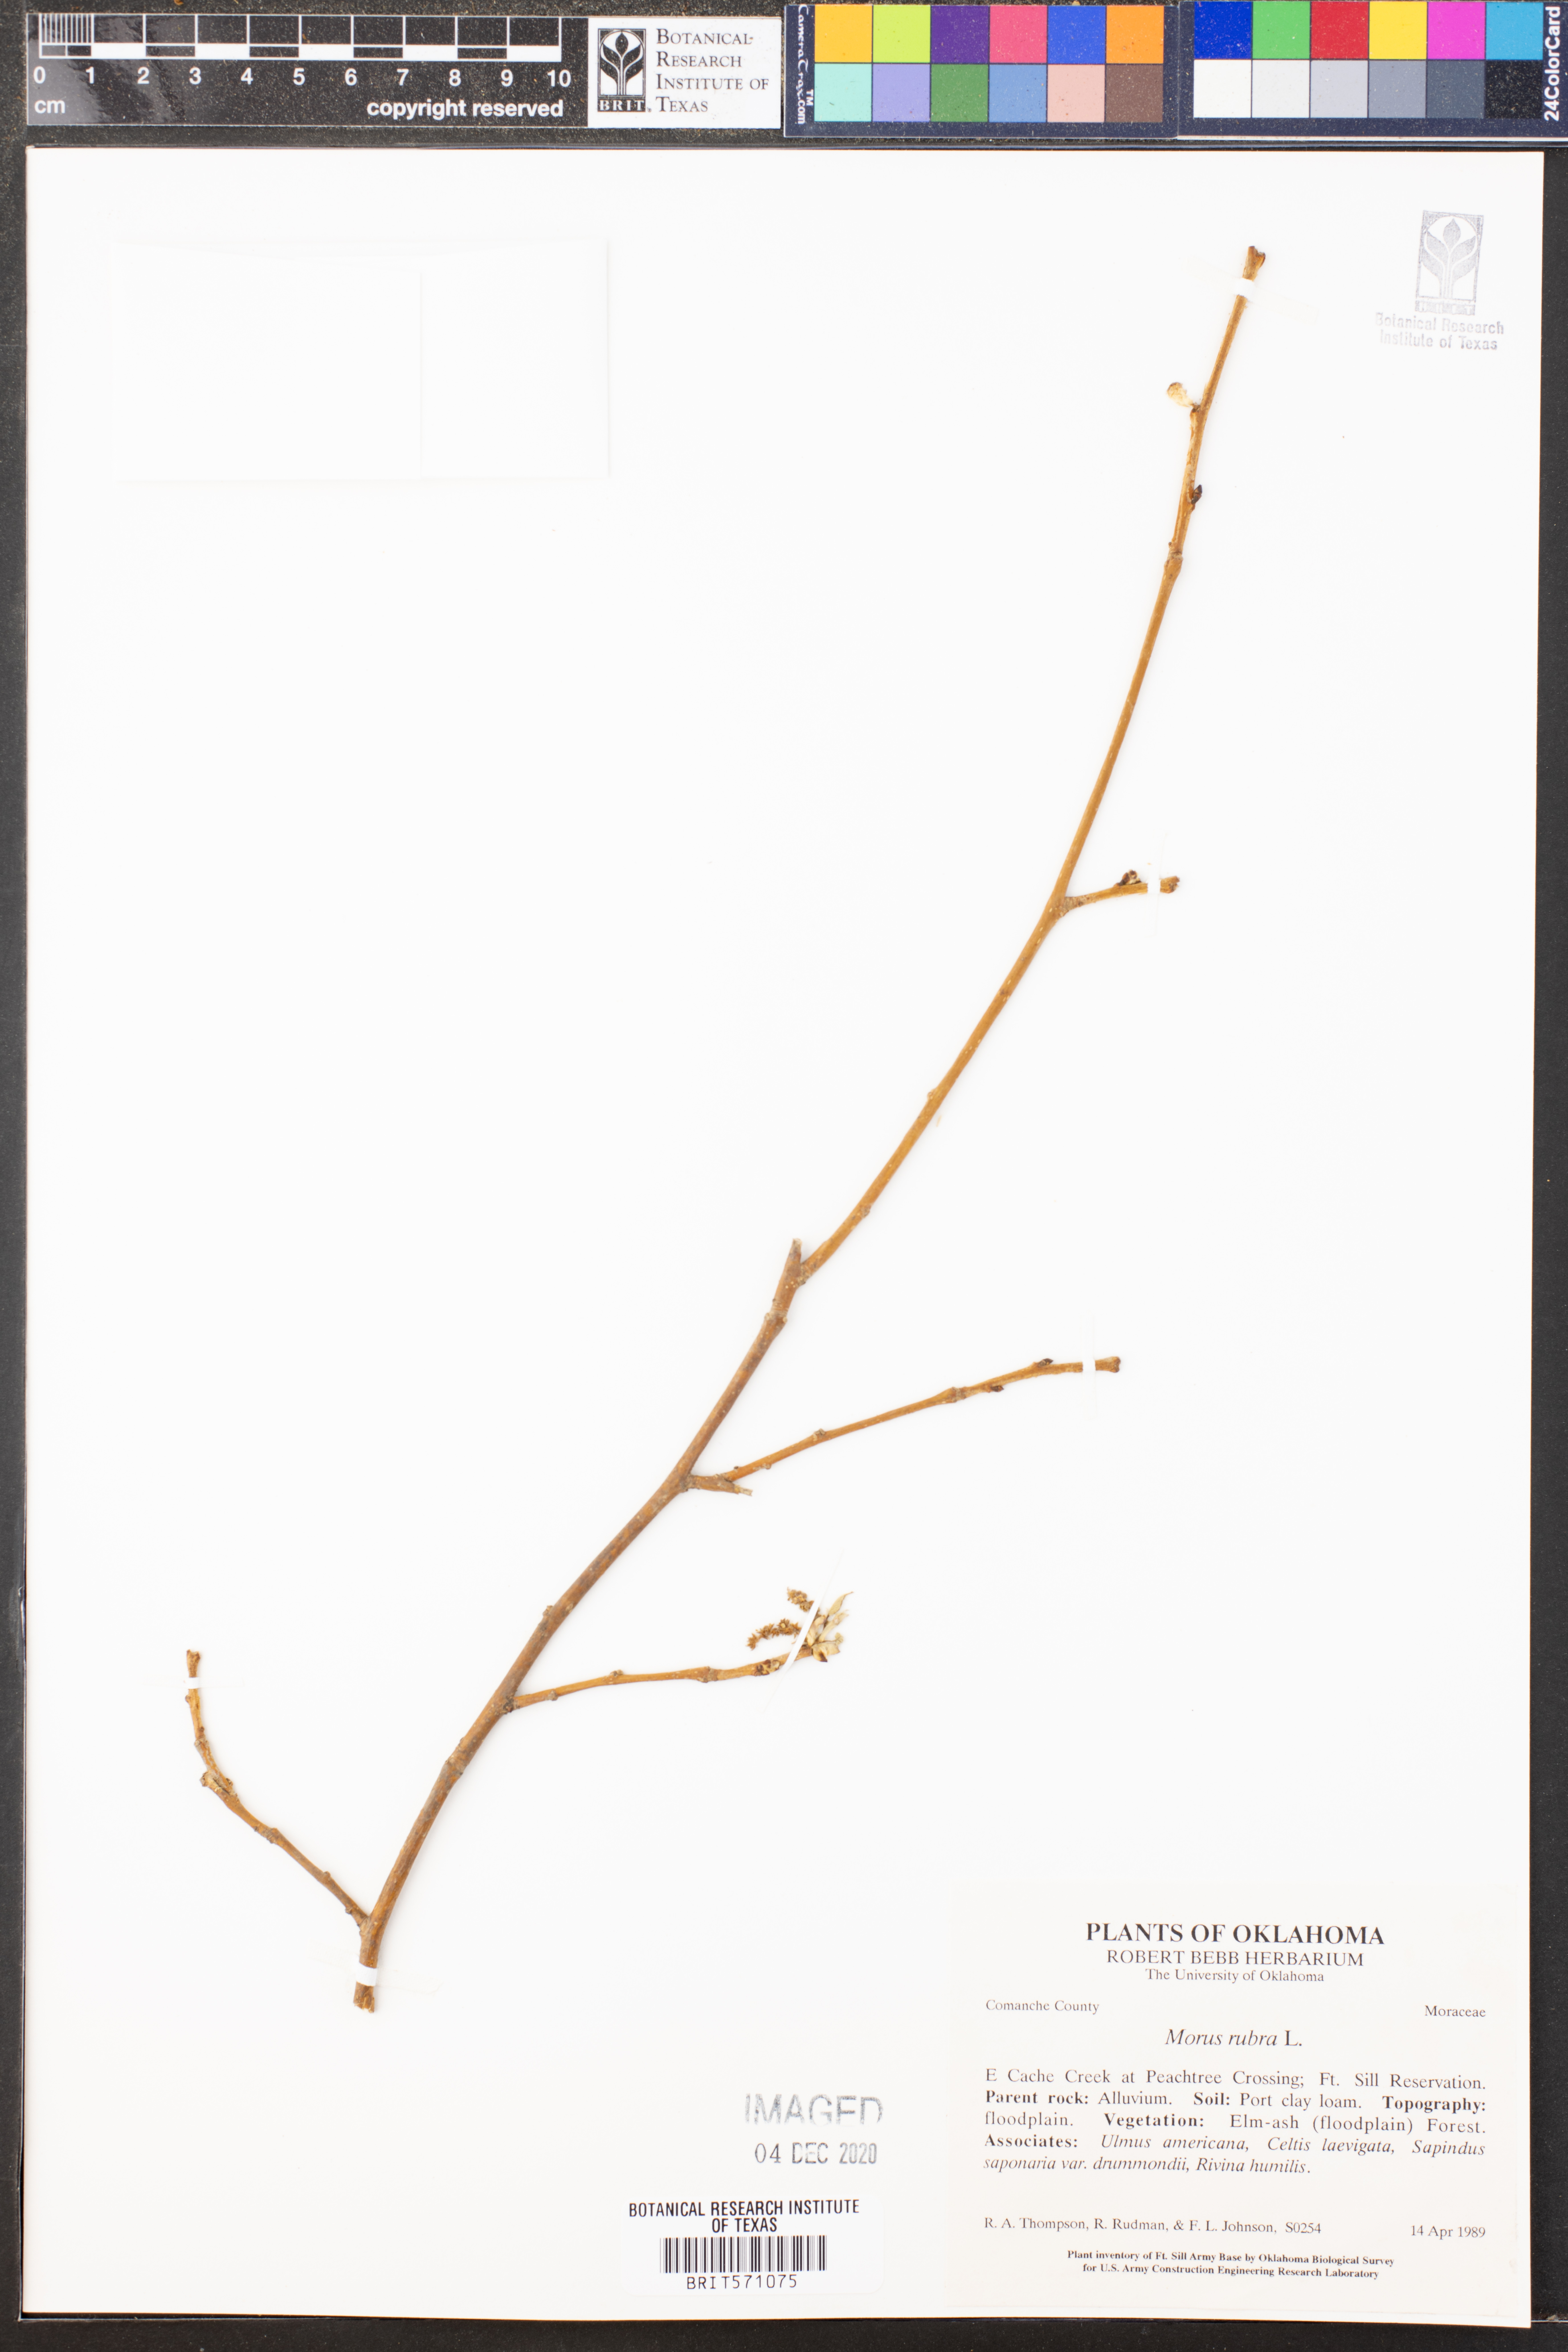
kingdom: Plantae
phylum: Tracheophyta
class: Magnoliopsida
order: Rosales
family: Moraceae
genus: Morus
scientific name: Morus rubra
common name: Red mulberry
